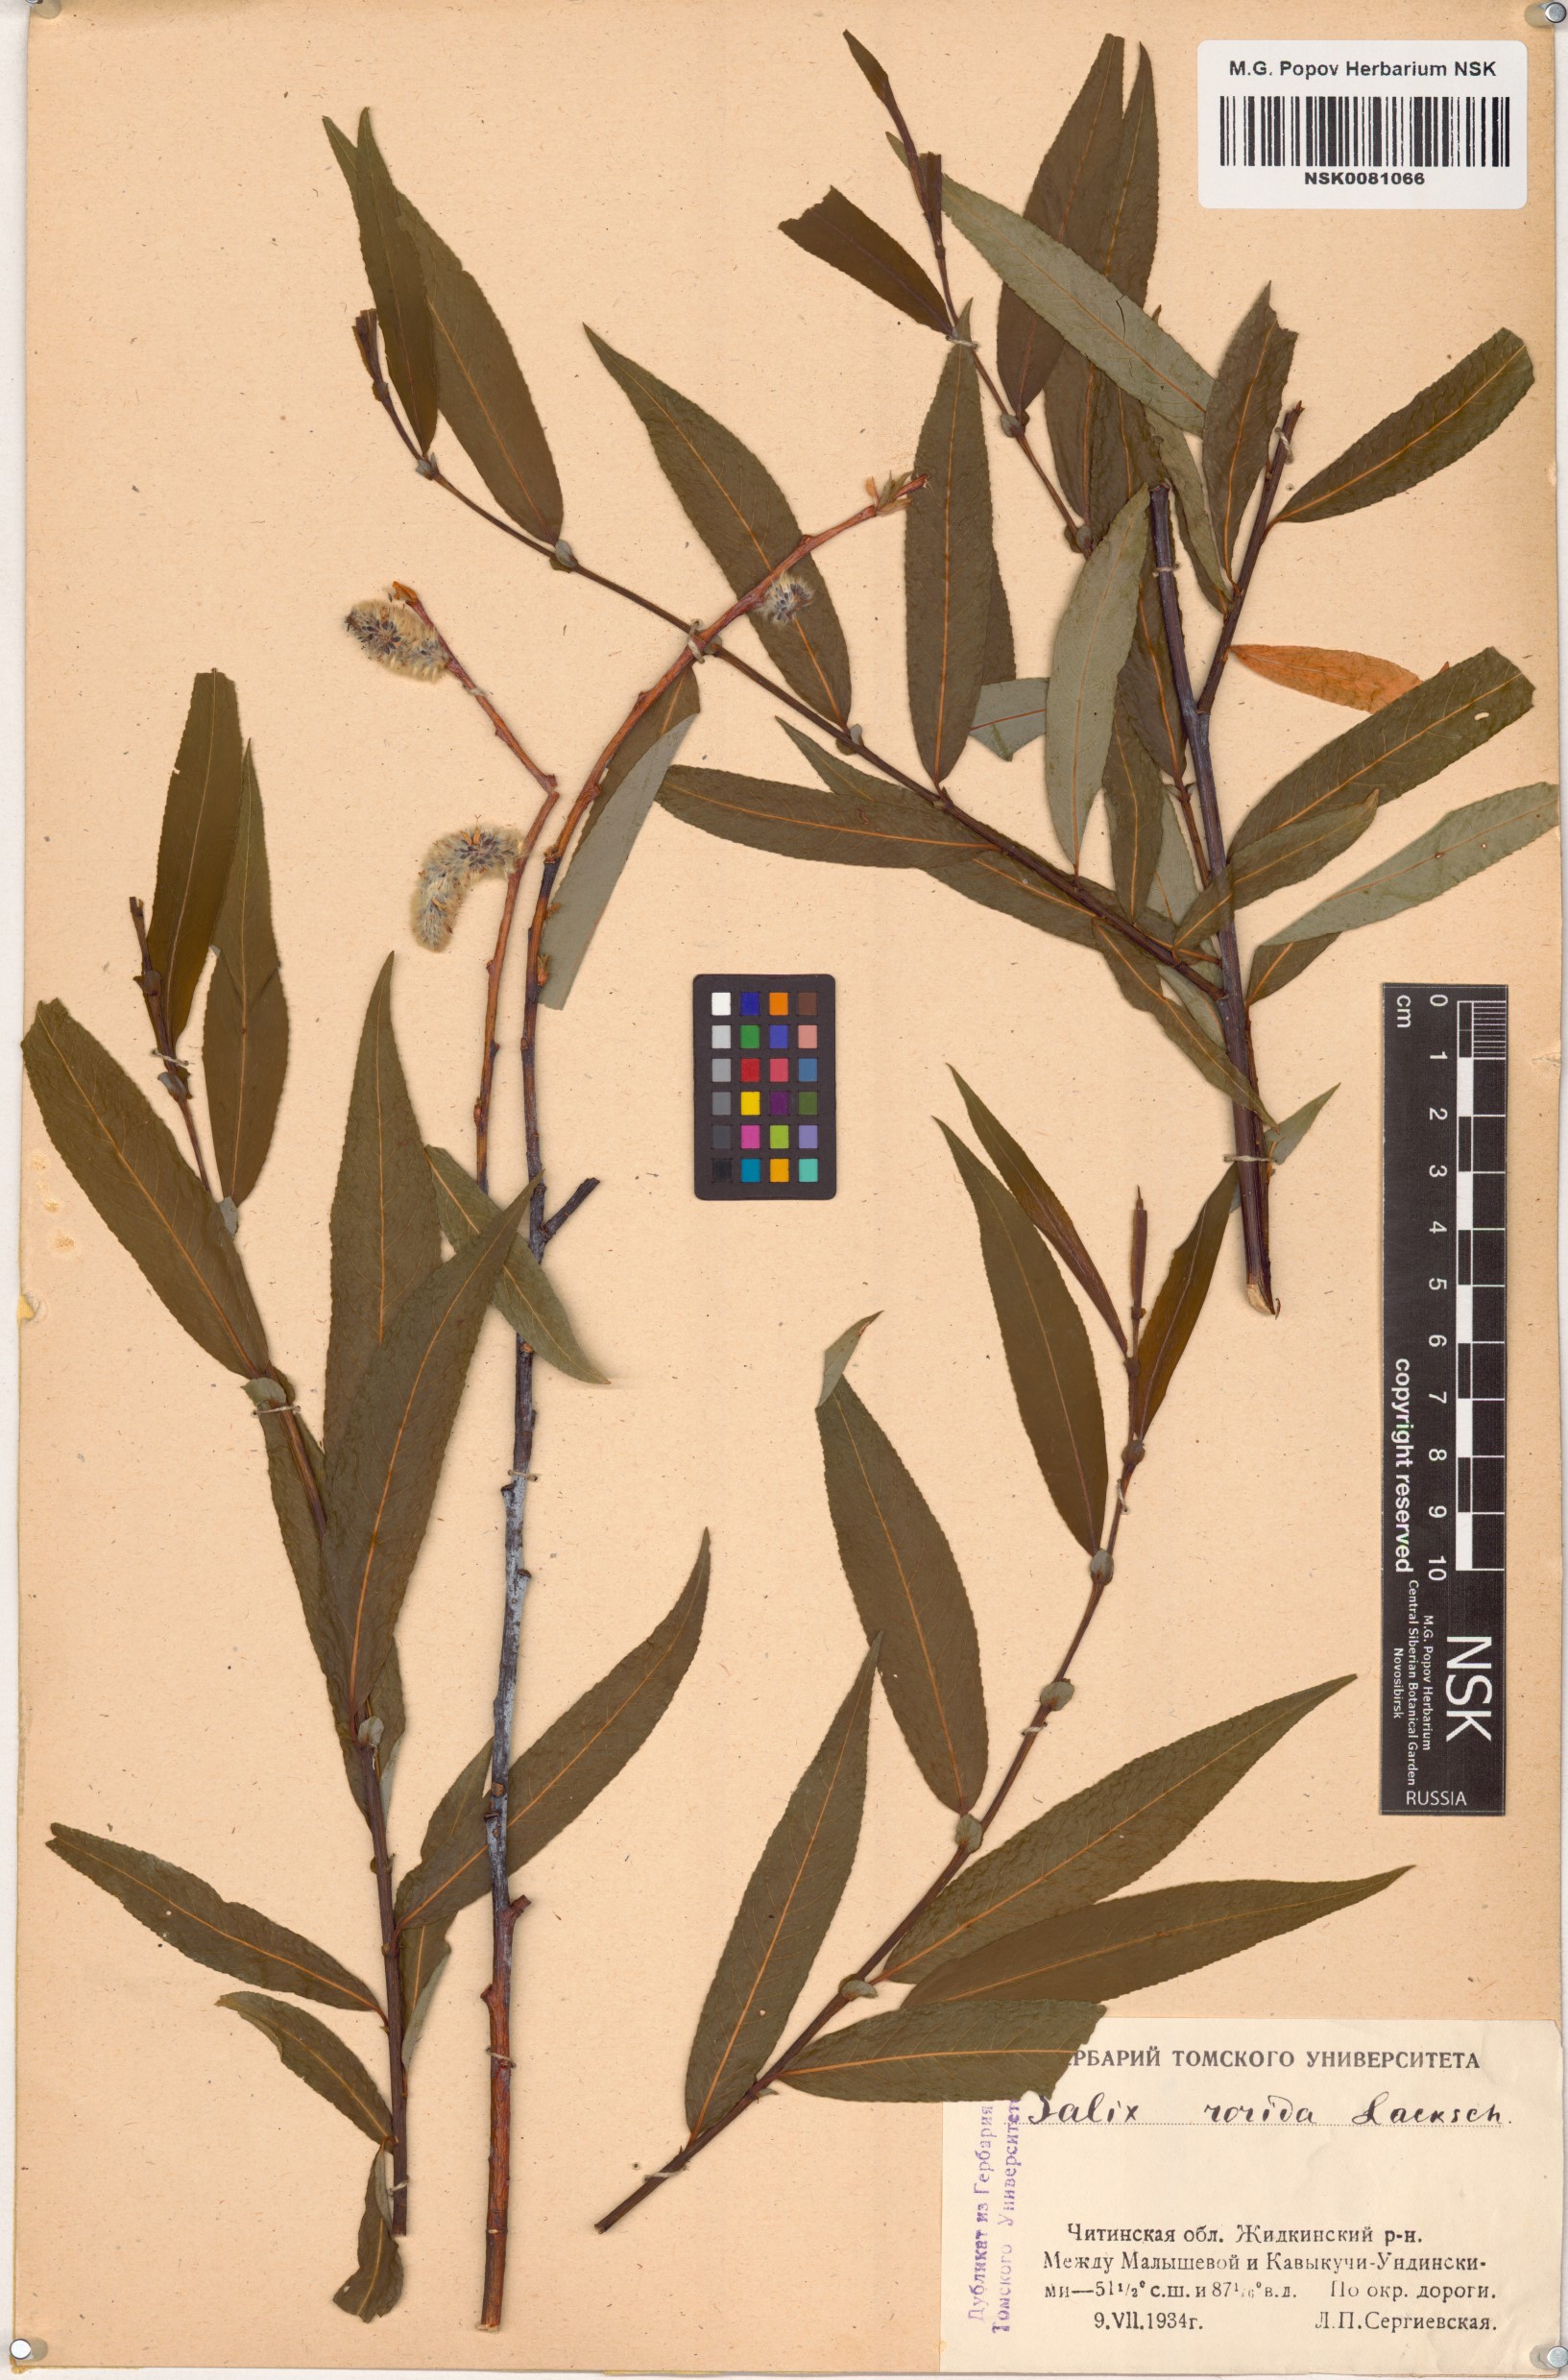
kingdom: Plantae
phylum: Tracheophyta
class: Magnoliopsida
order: Malpighiales
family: Salicaceae
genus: Salix
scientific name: Salix rorida
